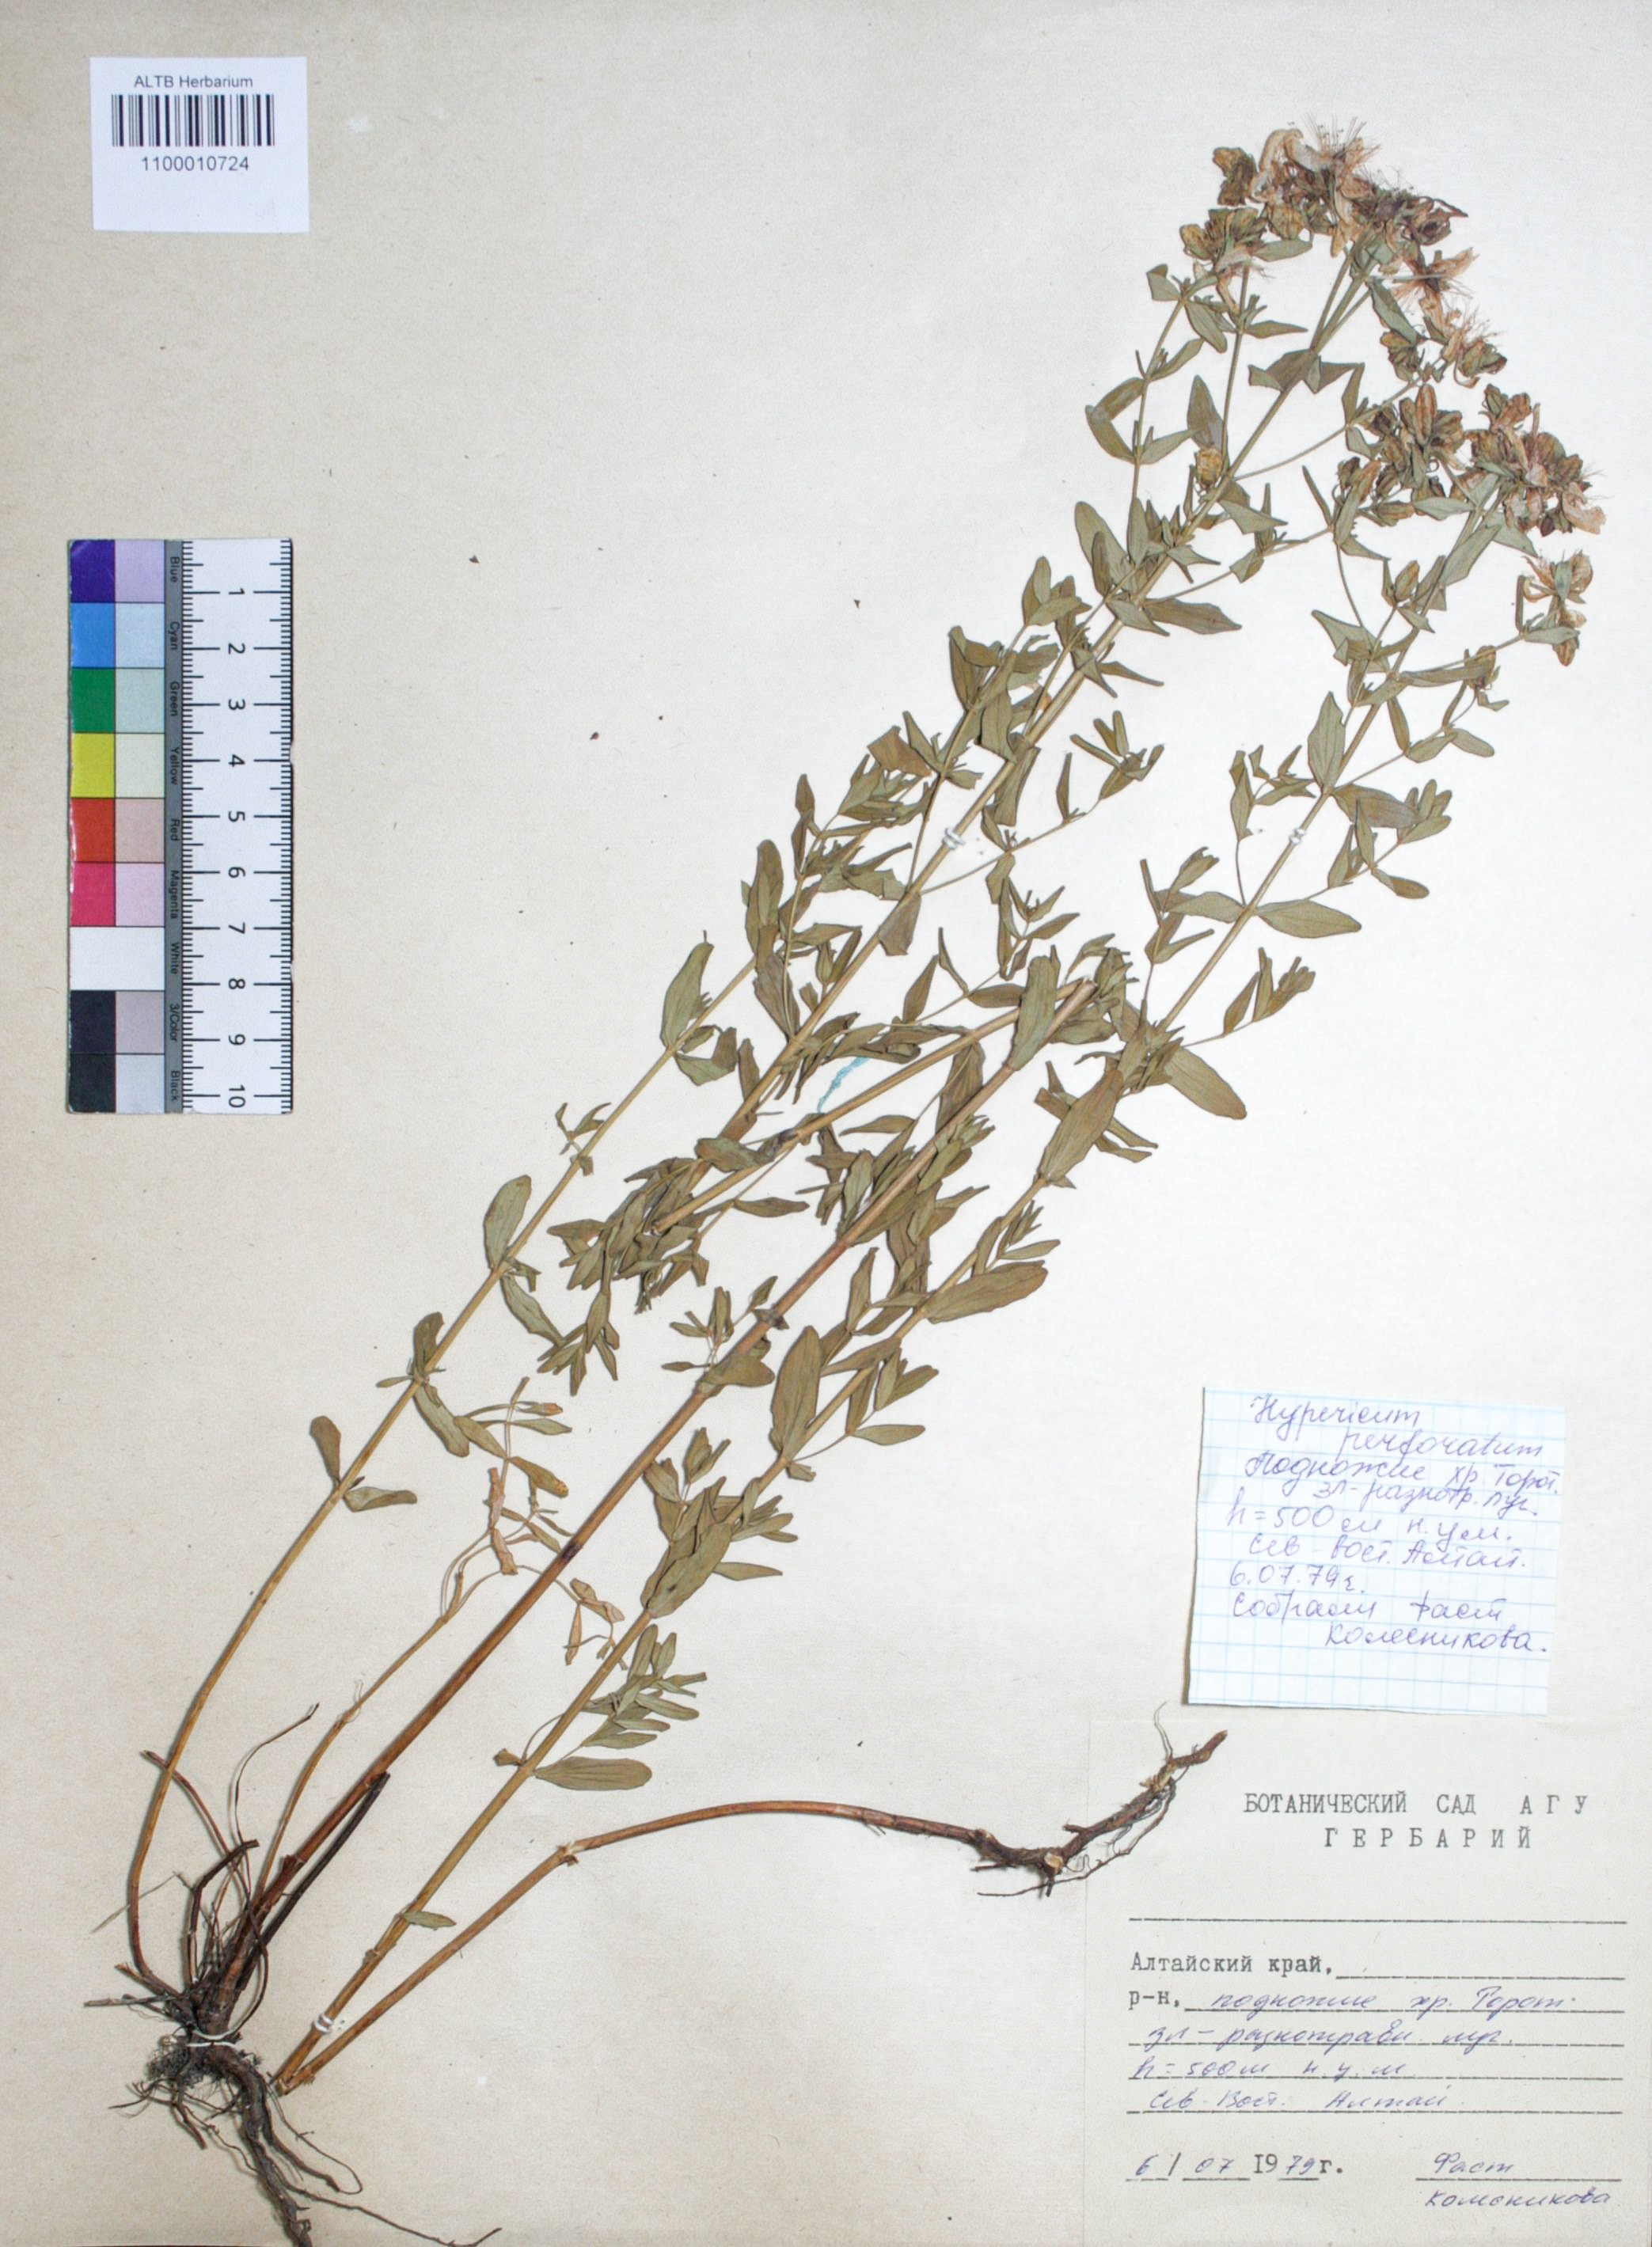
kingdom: Plantae
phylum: Tracheophyta
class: Magnoliopsida
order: Malpighiales
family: Hypericaceae
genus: Hypericum
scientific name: Hypericum perforatum
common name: Common st. johnswort
